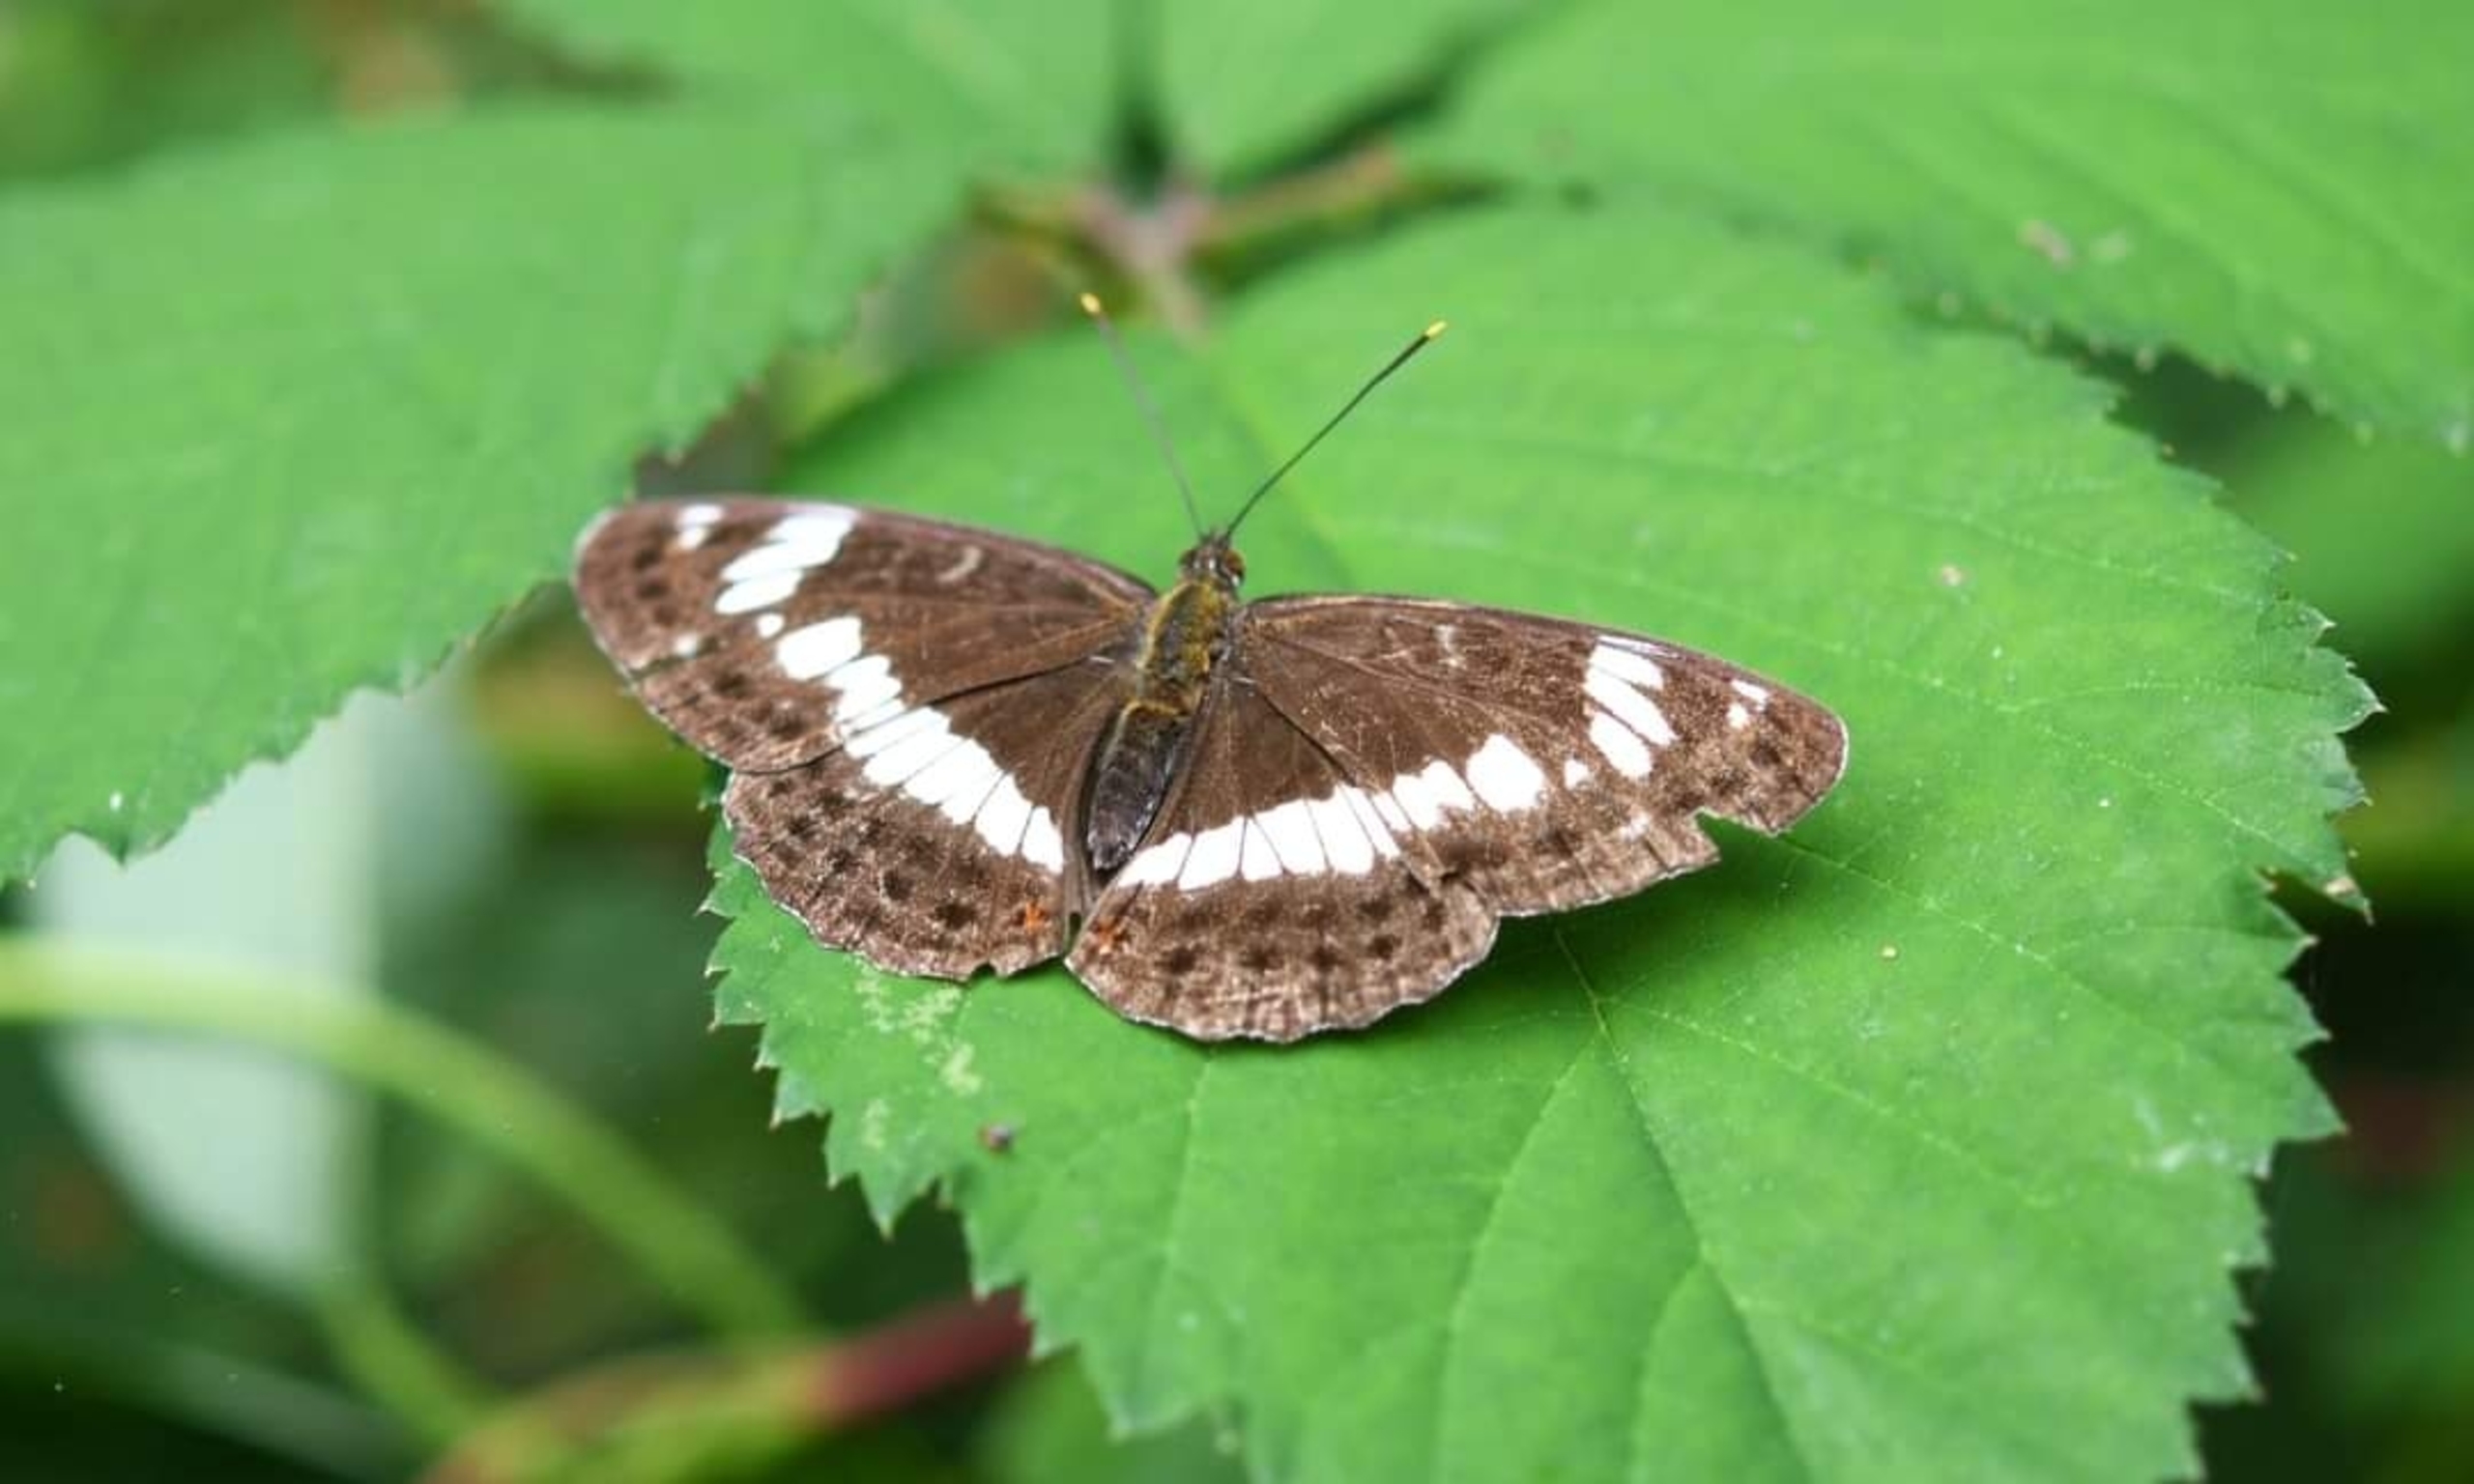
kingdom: Animalia
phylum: Arthropoda
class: Insecta
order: Lepidoptera
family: Nymphalidae
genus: Ladoga
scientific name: Ladoga camilla
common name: Hvid admiral
